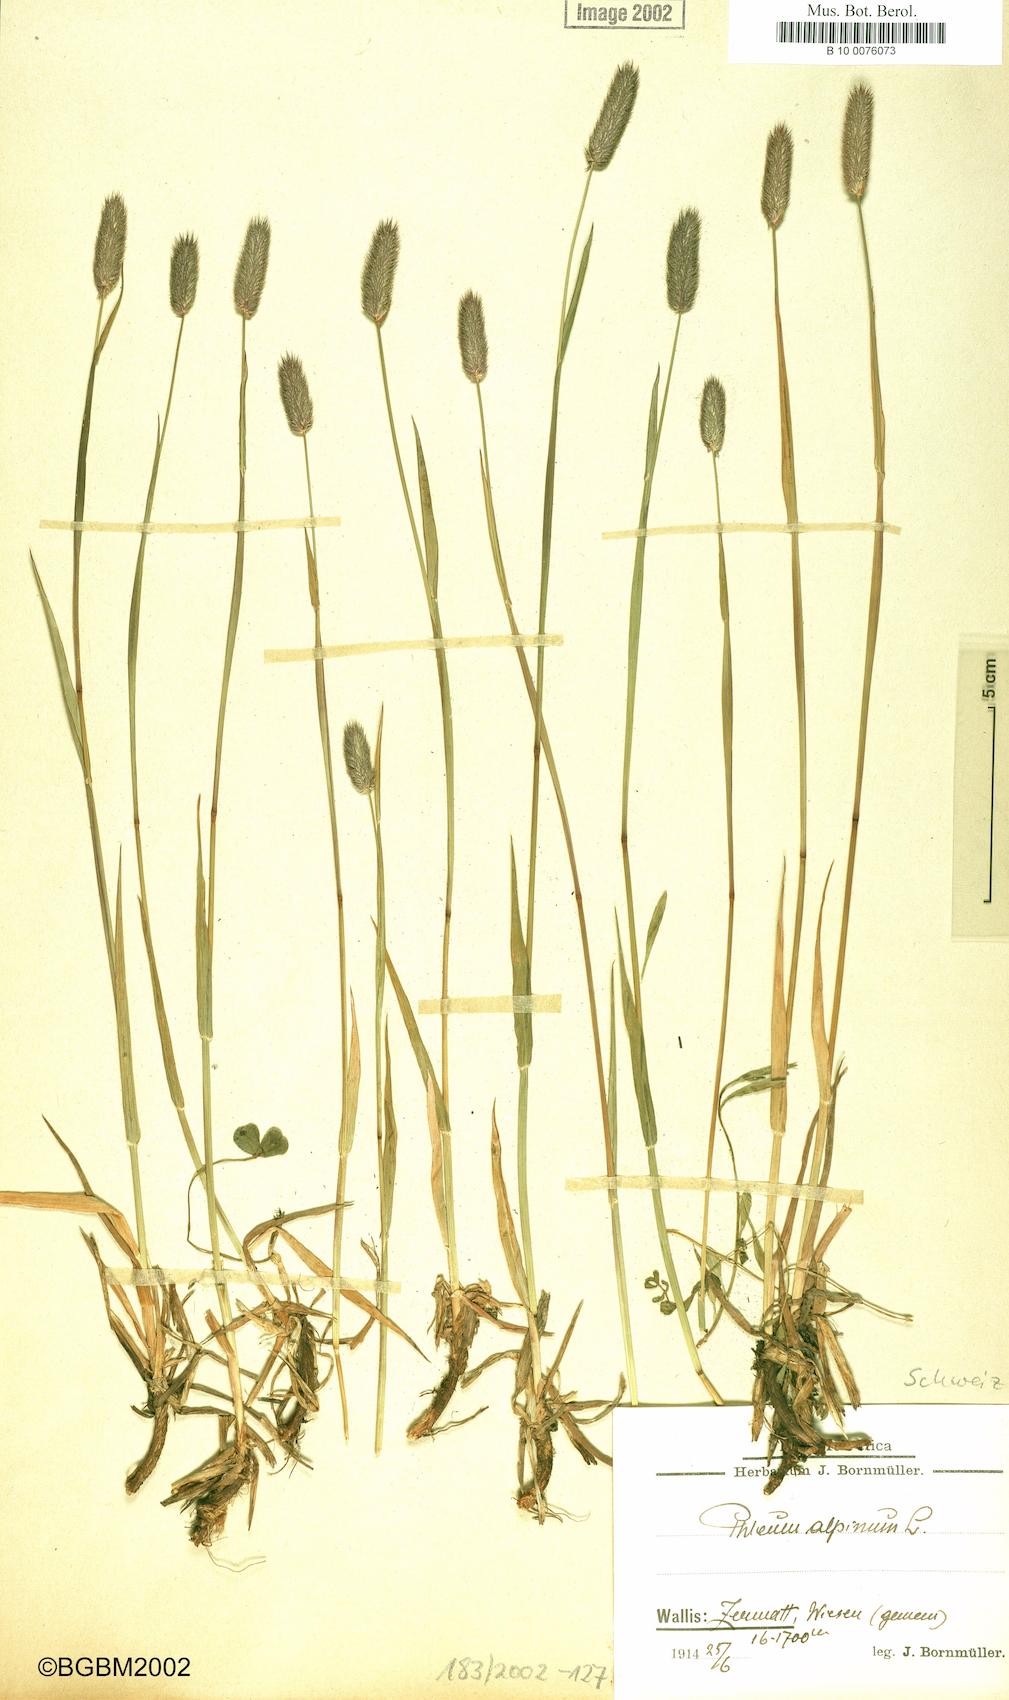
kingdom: Plantae
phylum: Tracheophyta
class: Liliopsida
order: Poales
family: Poaceae
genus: Phleum
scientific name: Phleum alpinum
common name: Alpine cat's-tail
